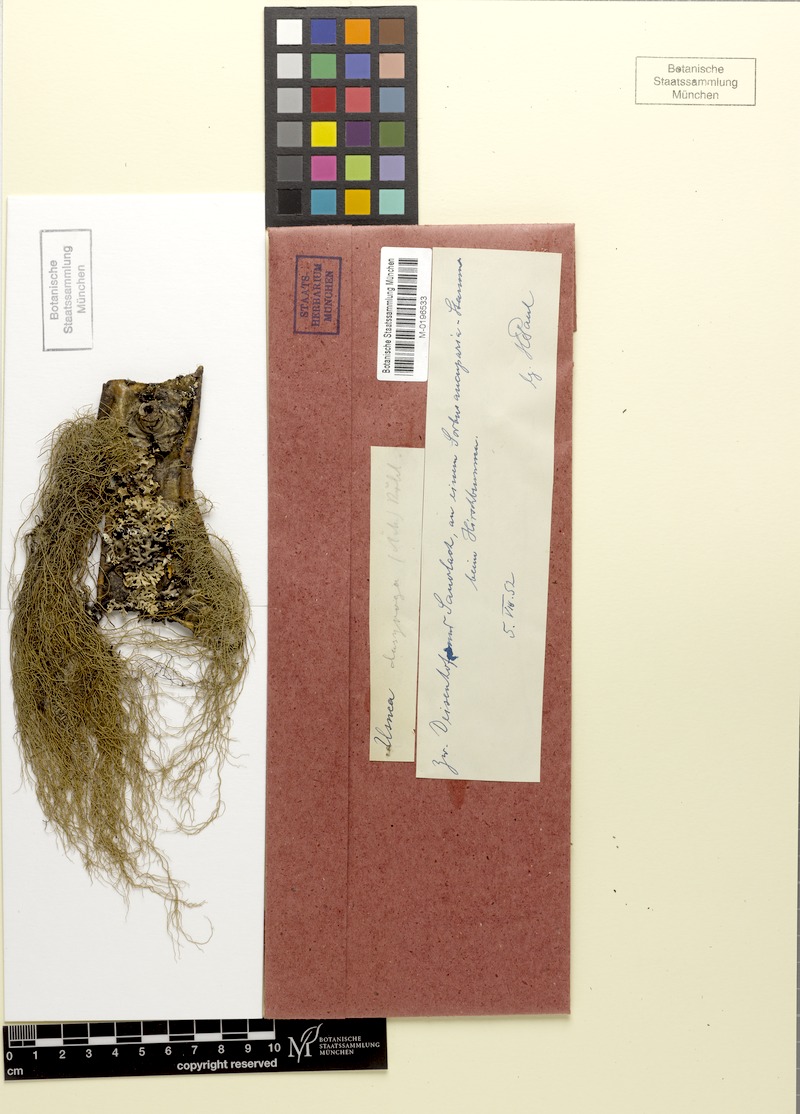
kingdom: Fungi
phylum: Ascomycota
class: Lecanoromycetes
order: Lecanorales
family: Parmeliaceae
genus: Usnea
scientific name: Usnea dasopoga
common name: Fishbone beard lichen
